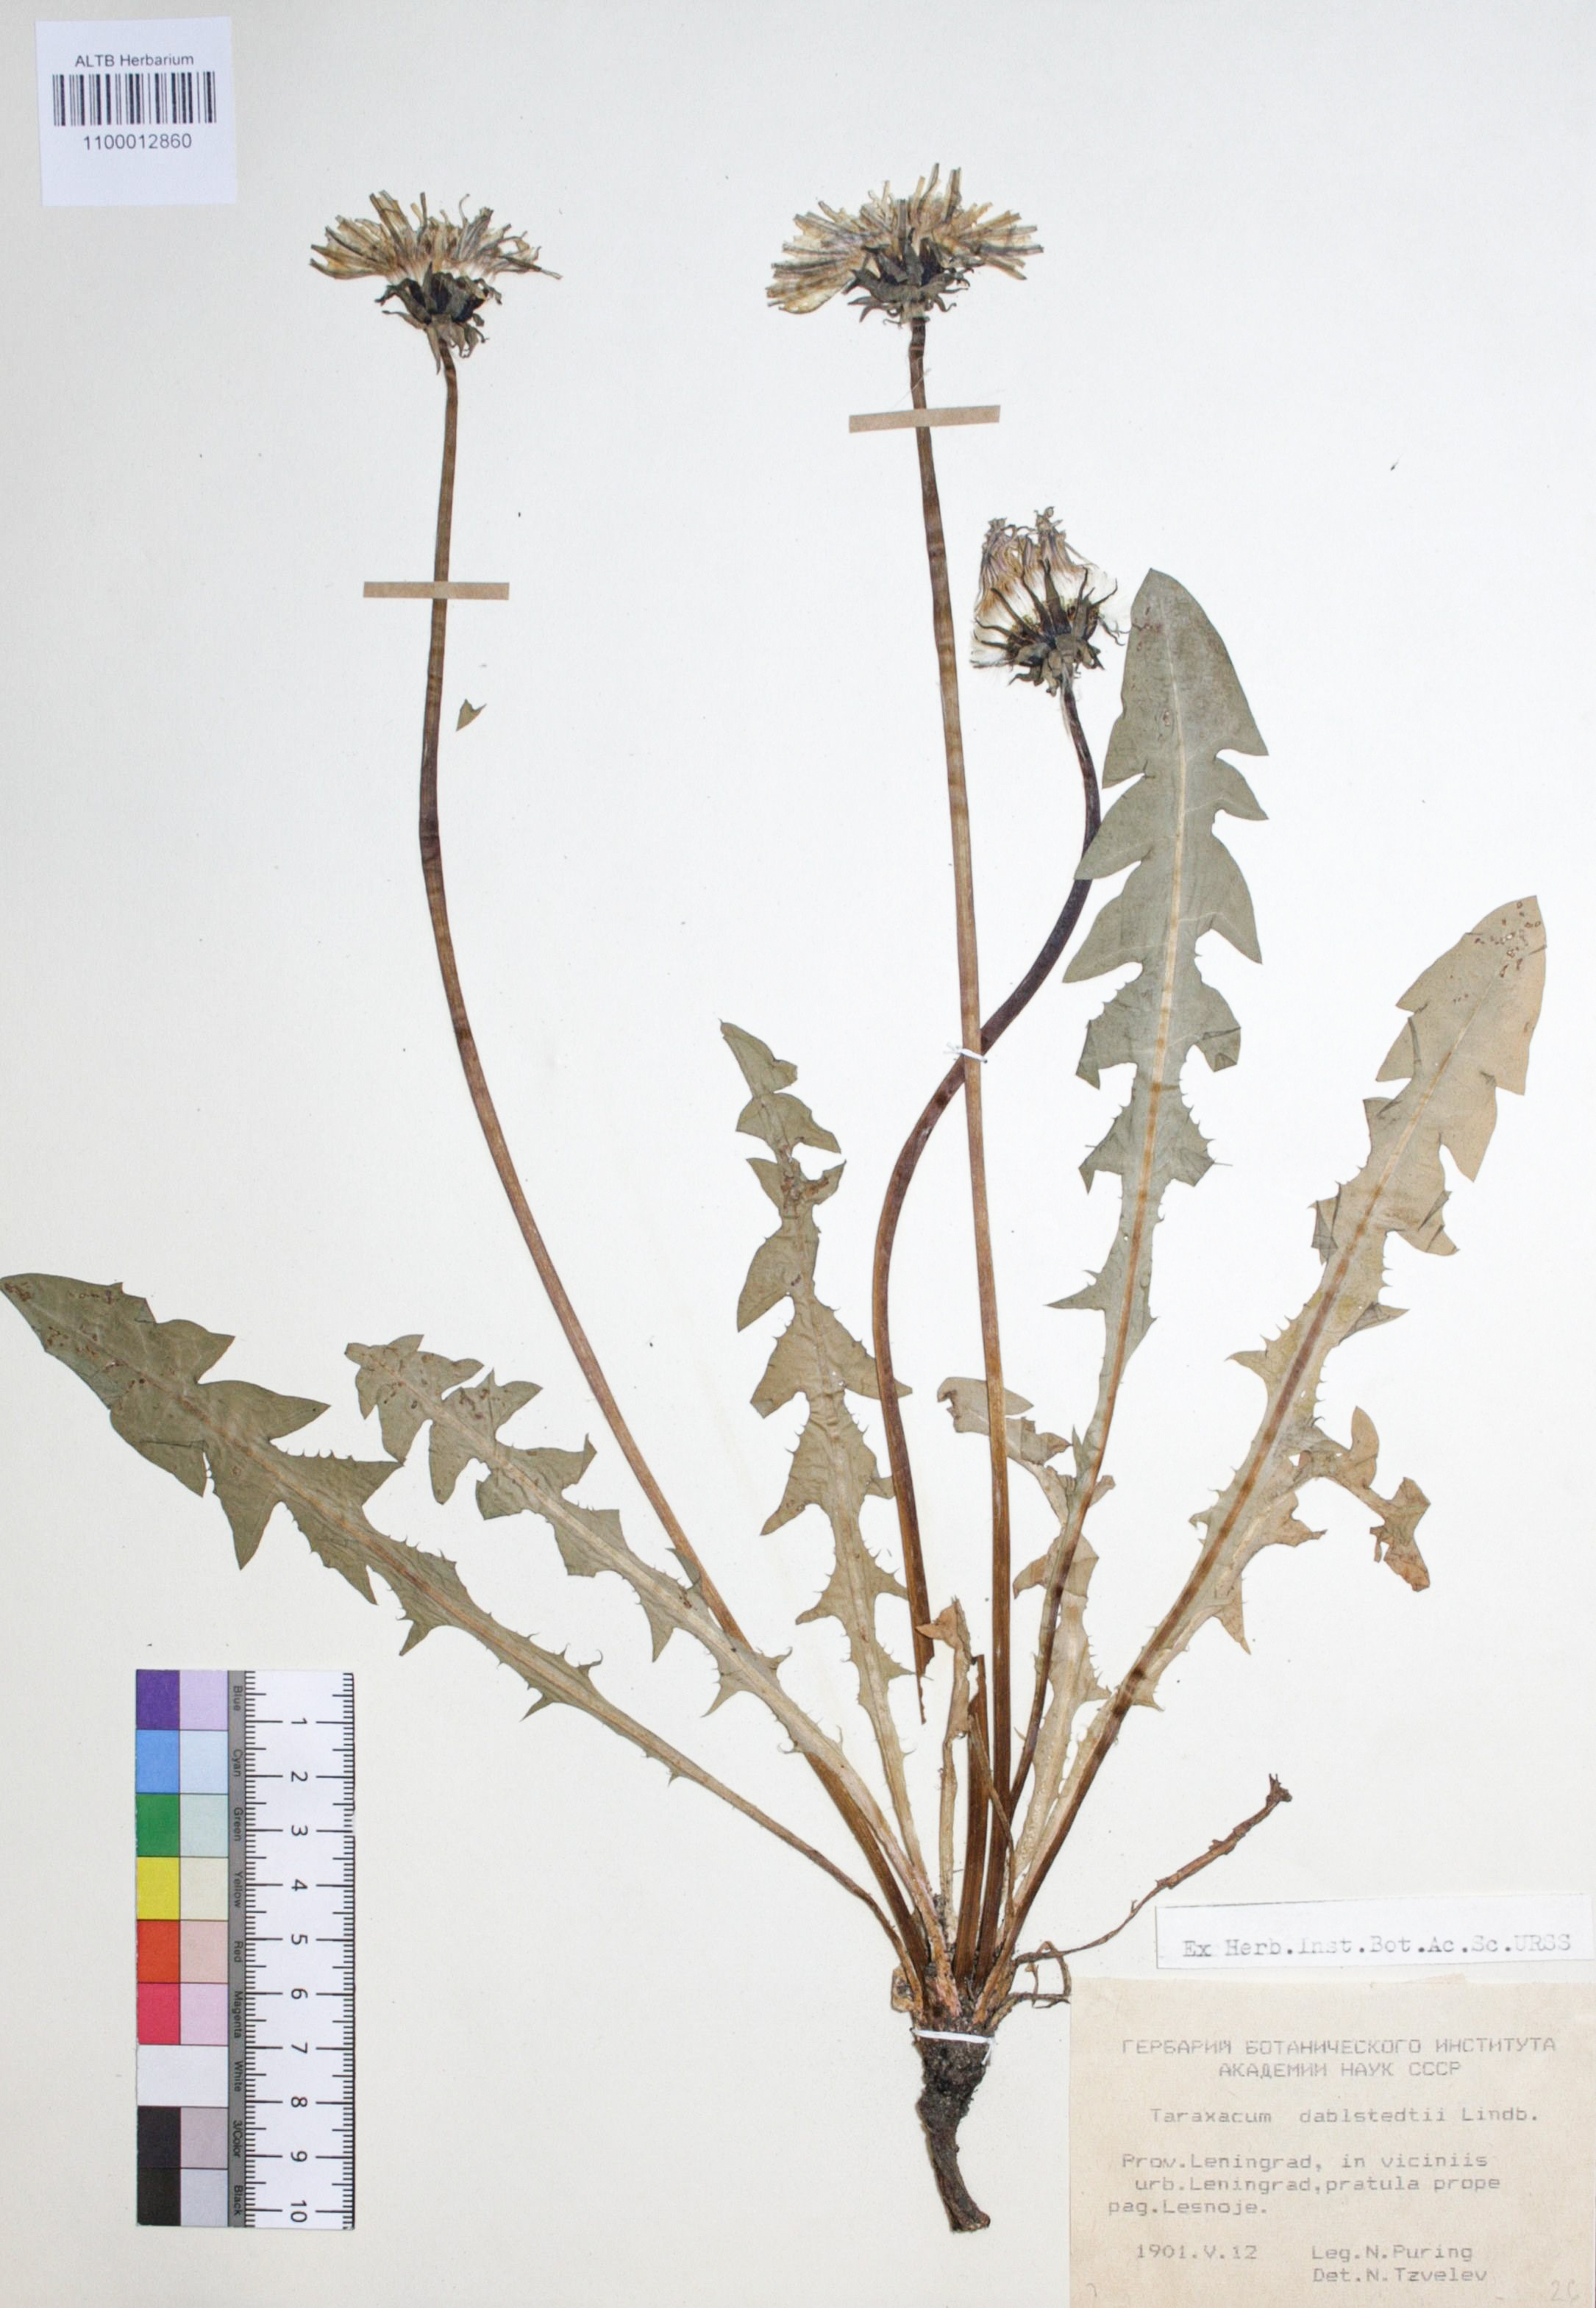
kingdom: Plantae
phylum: Tracheophyta
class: Magnoliopsida
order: Asterales
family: Asteraceae
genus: Taraxacum
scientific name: Taraxacum stenoglossum
